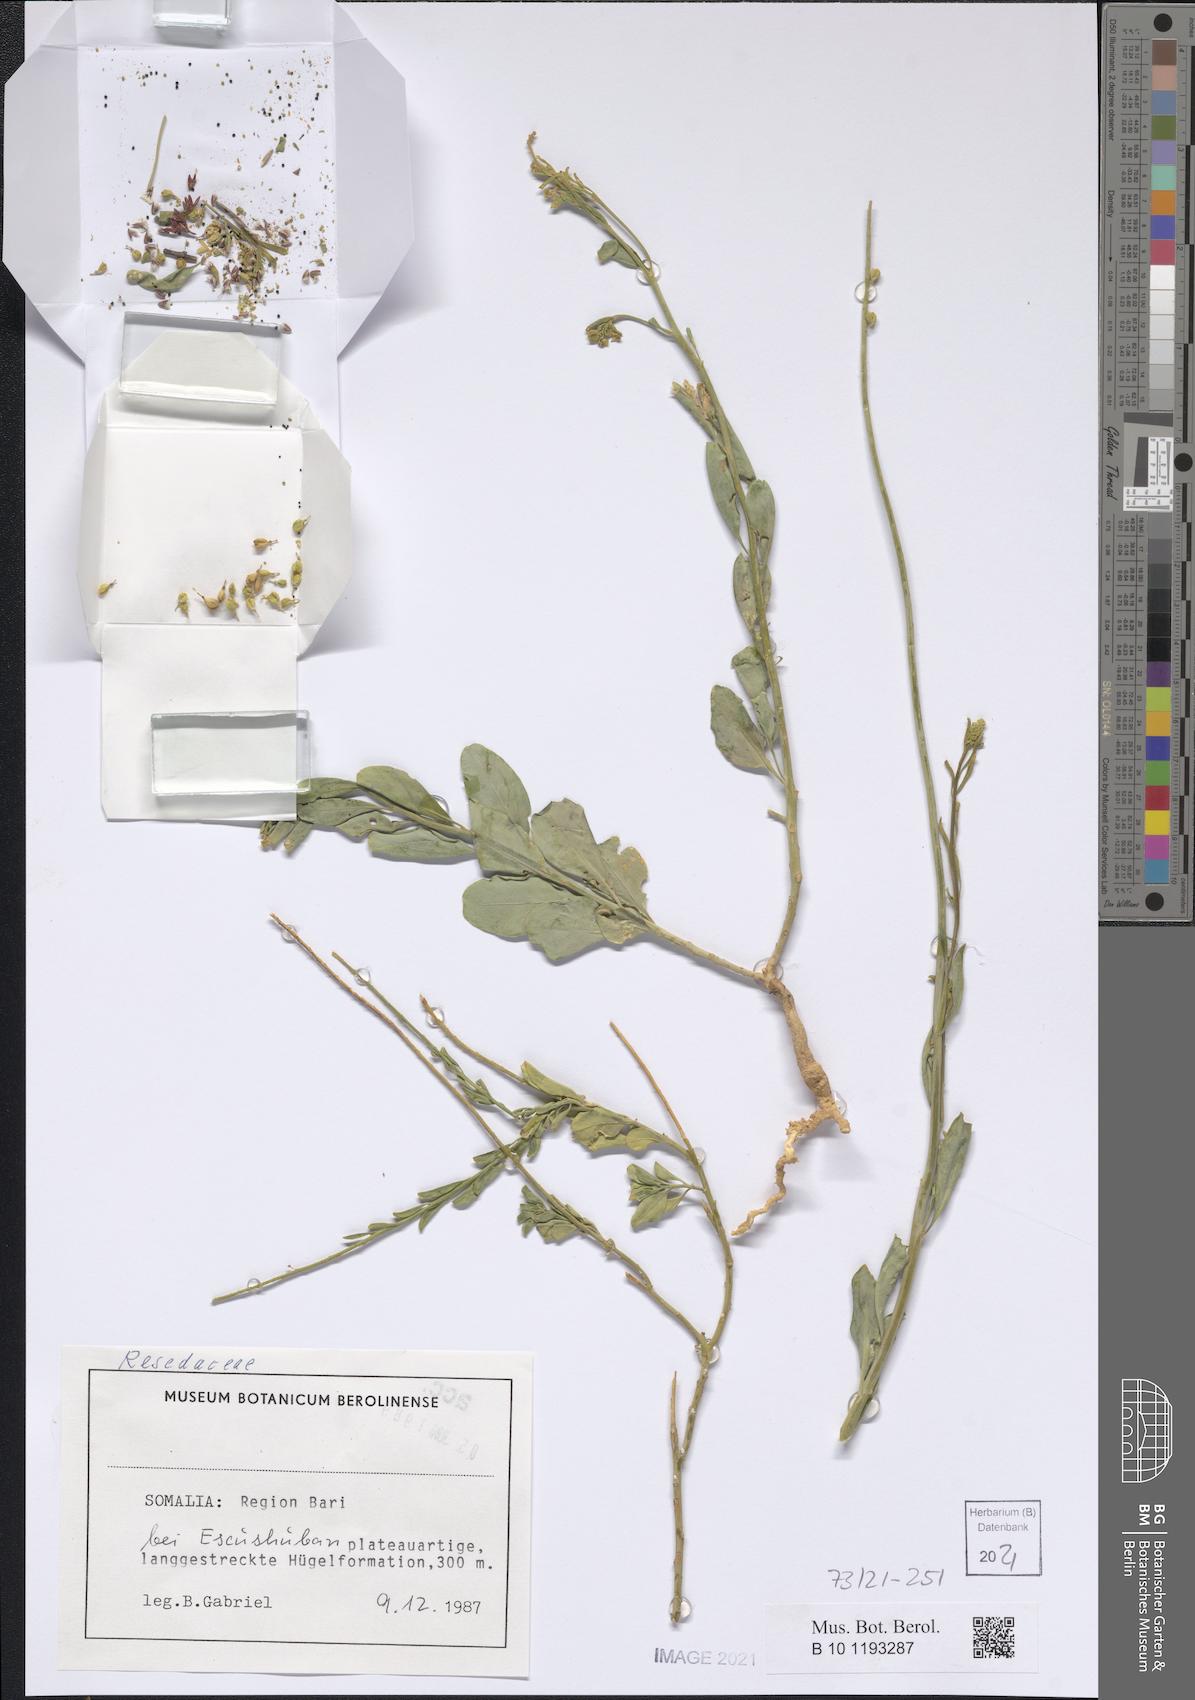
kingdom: Plantae
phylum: Tracheophyta
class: Magnoliopsida
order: Brassicales
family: Resedaceae
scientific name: Resedaceae
